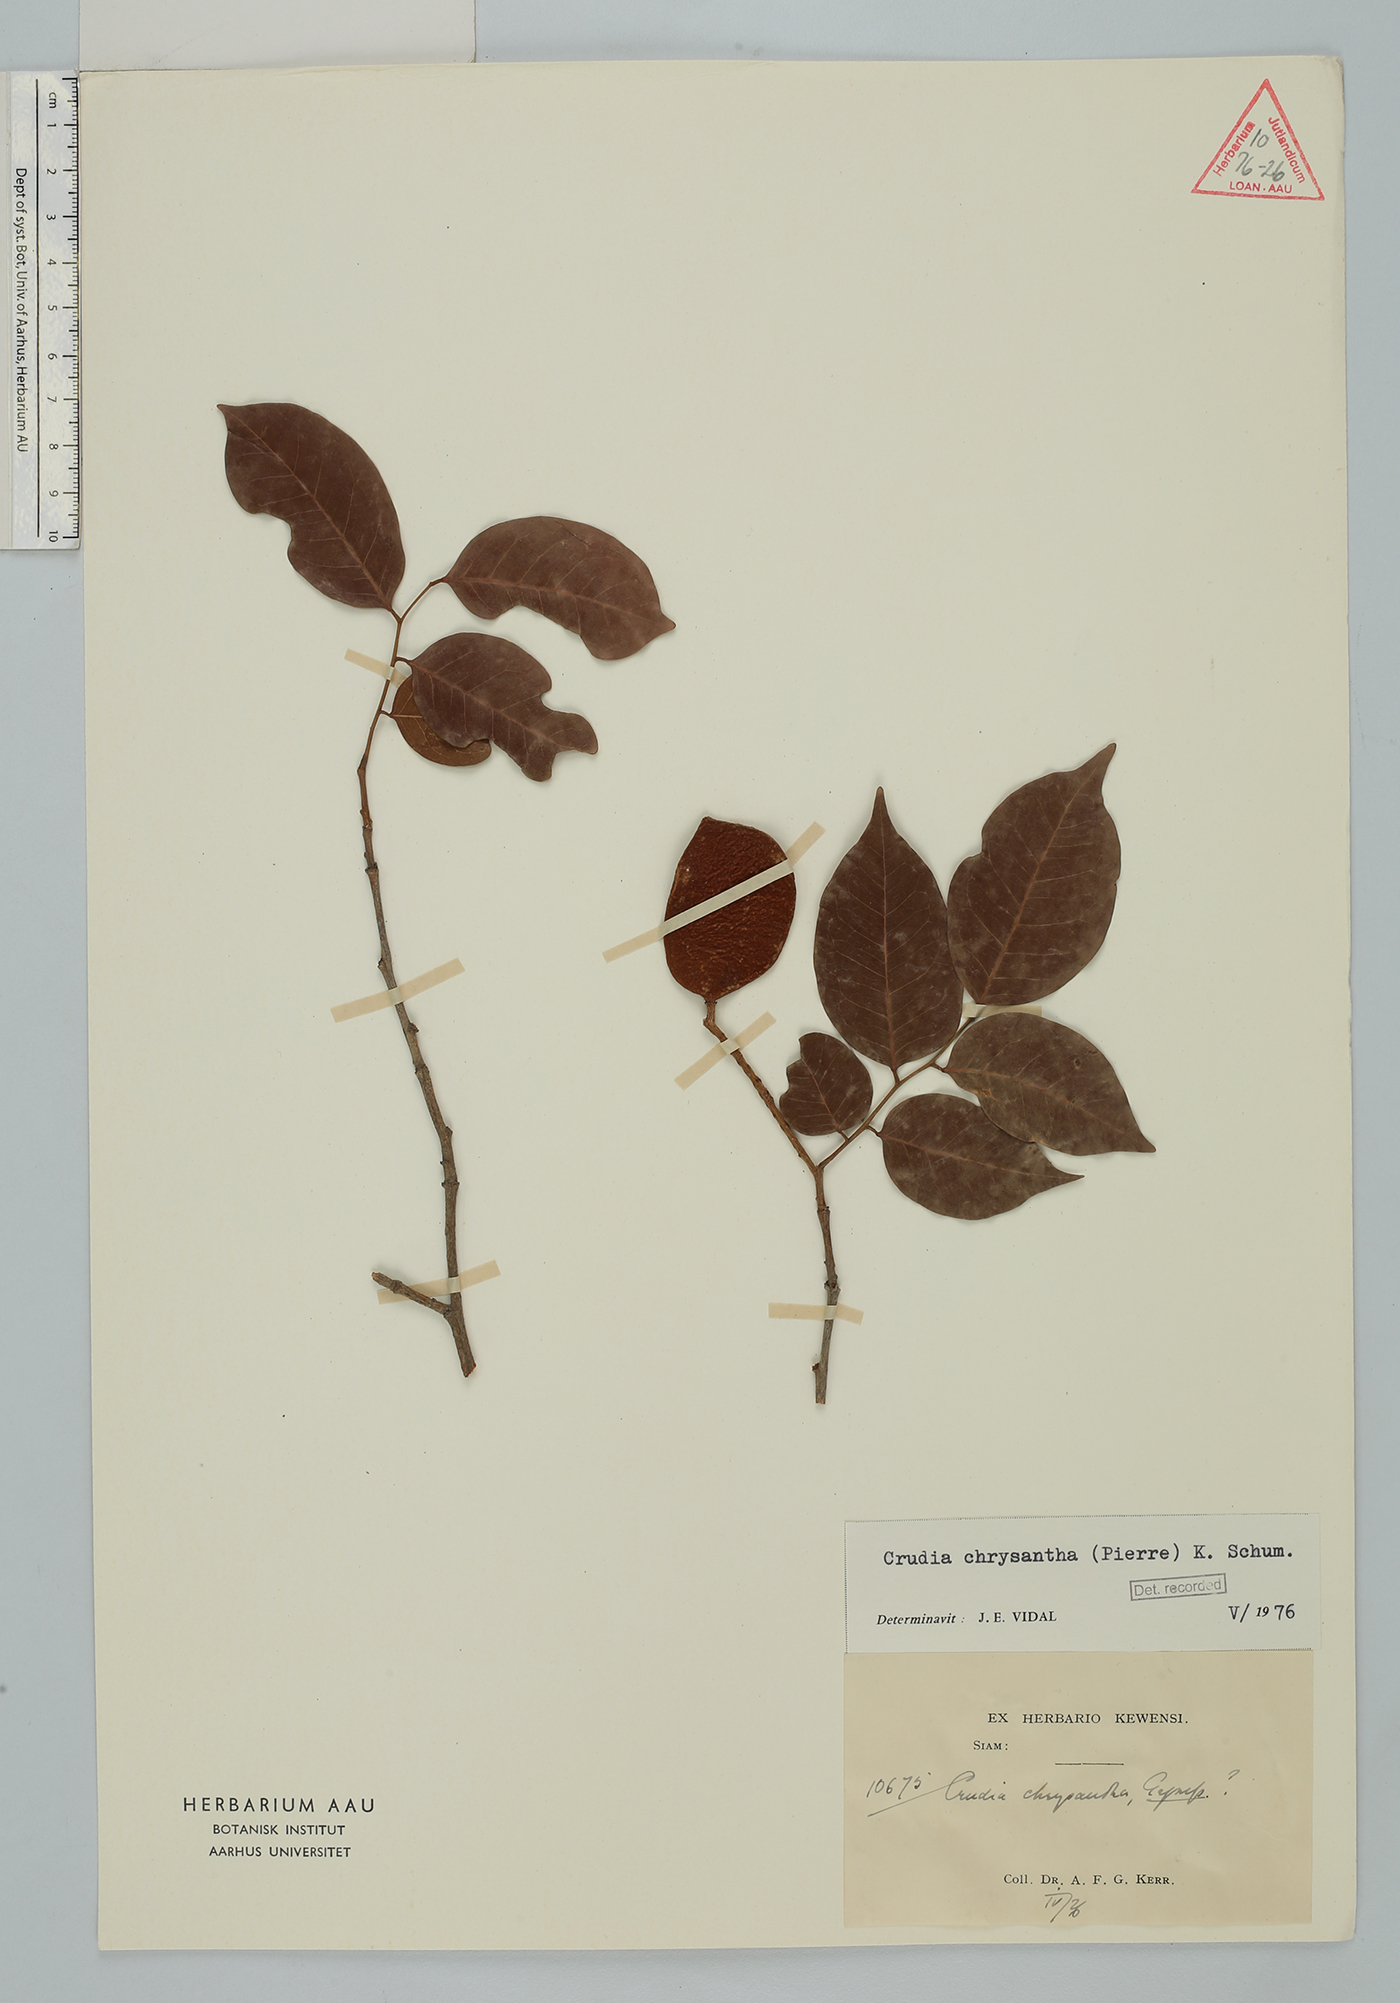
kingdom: Plantae
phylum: Tracheophyta
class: Magnoliopsida
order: Fabales
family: Fabaceae
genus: Crudia
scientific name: Crudia zeylanica
